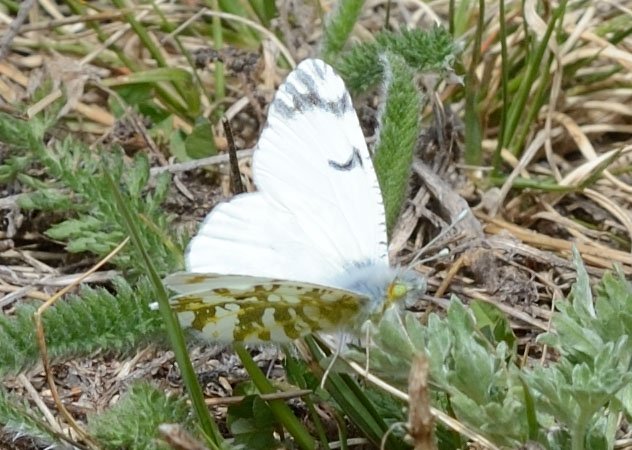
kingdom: Animalia
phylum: Arthropoda
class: Insecta
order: Lepidoptera
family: Pieridae
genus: Euchloe
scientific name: Euchloe ausonides
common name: Large Marble
